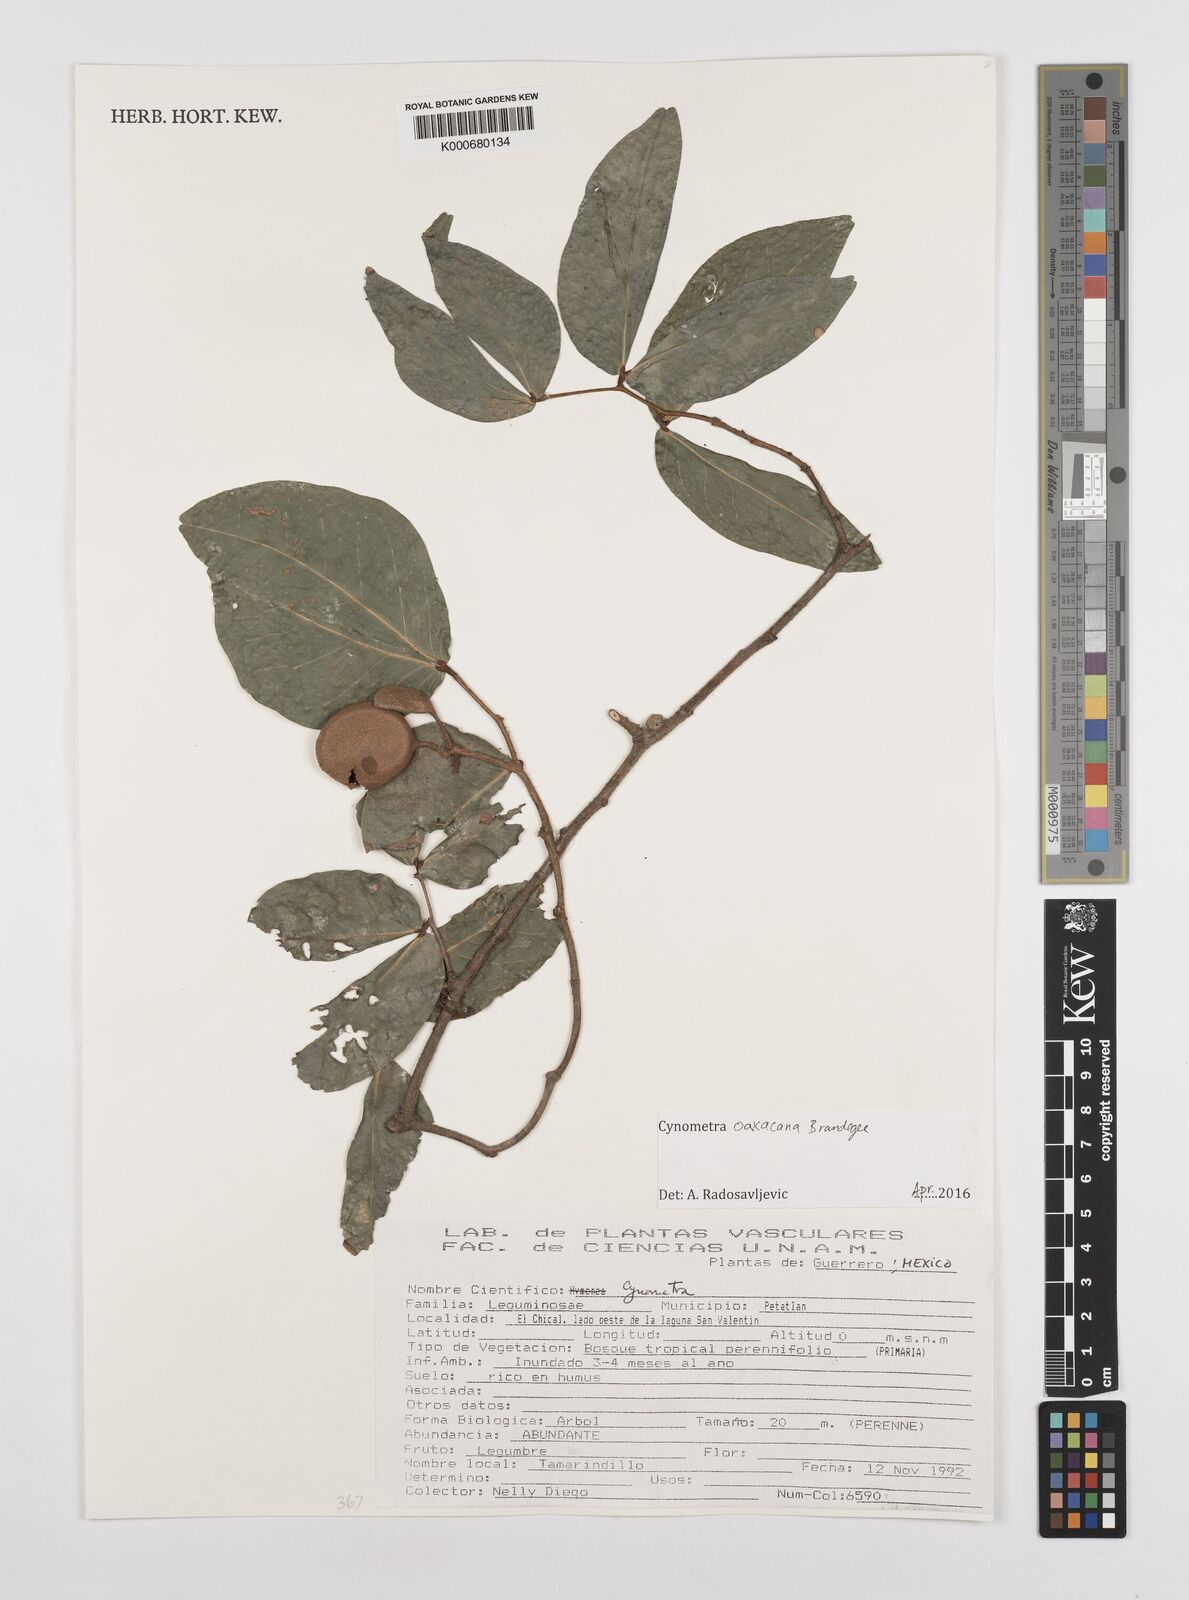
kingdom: Plantae
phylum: Tracheophyta
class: Magnoliopsida
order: Fabales
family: Fabaceae
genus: Cynometra
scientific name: Cynometra oaxacana
